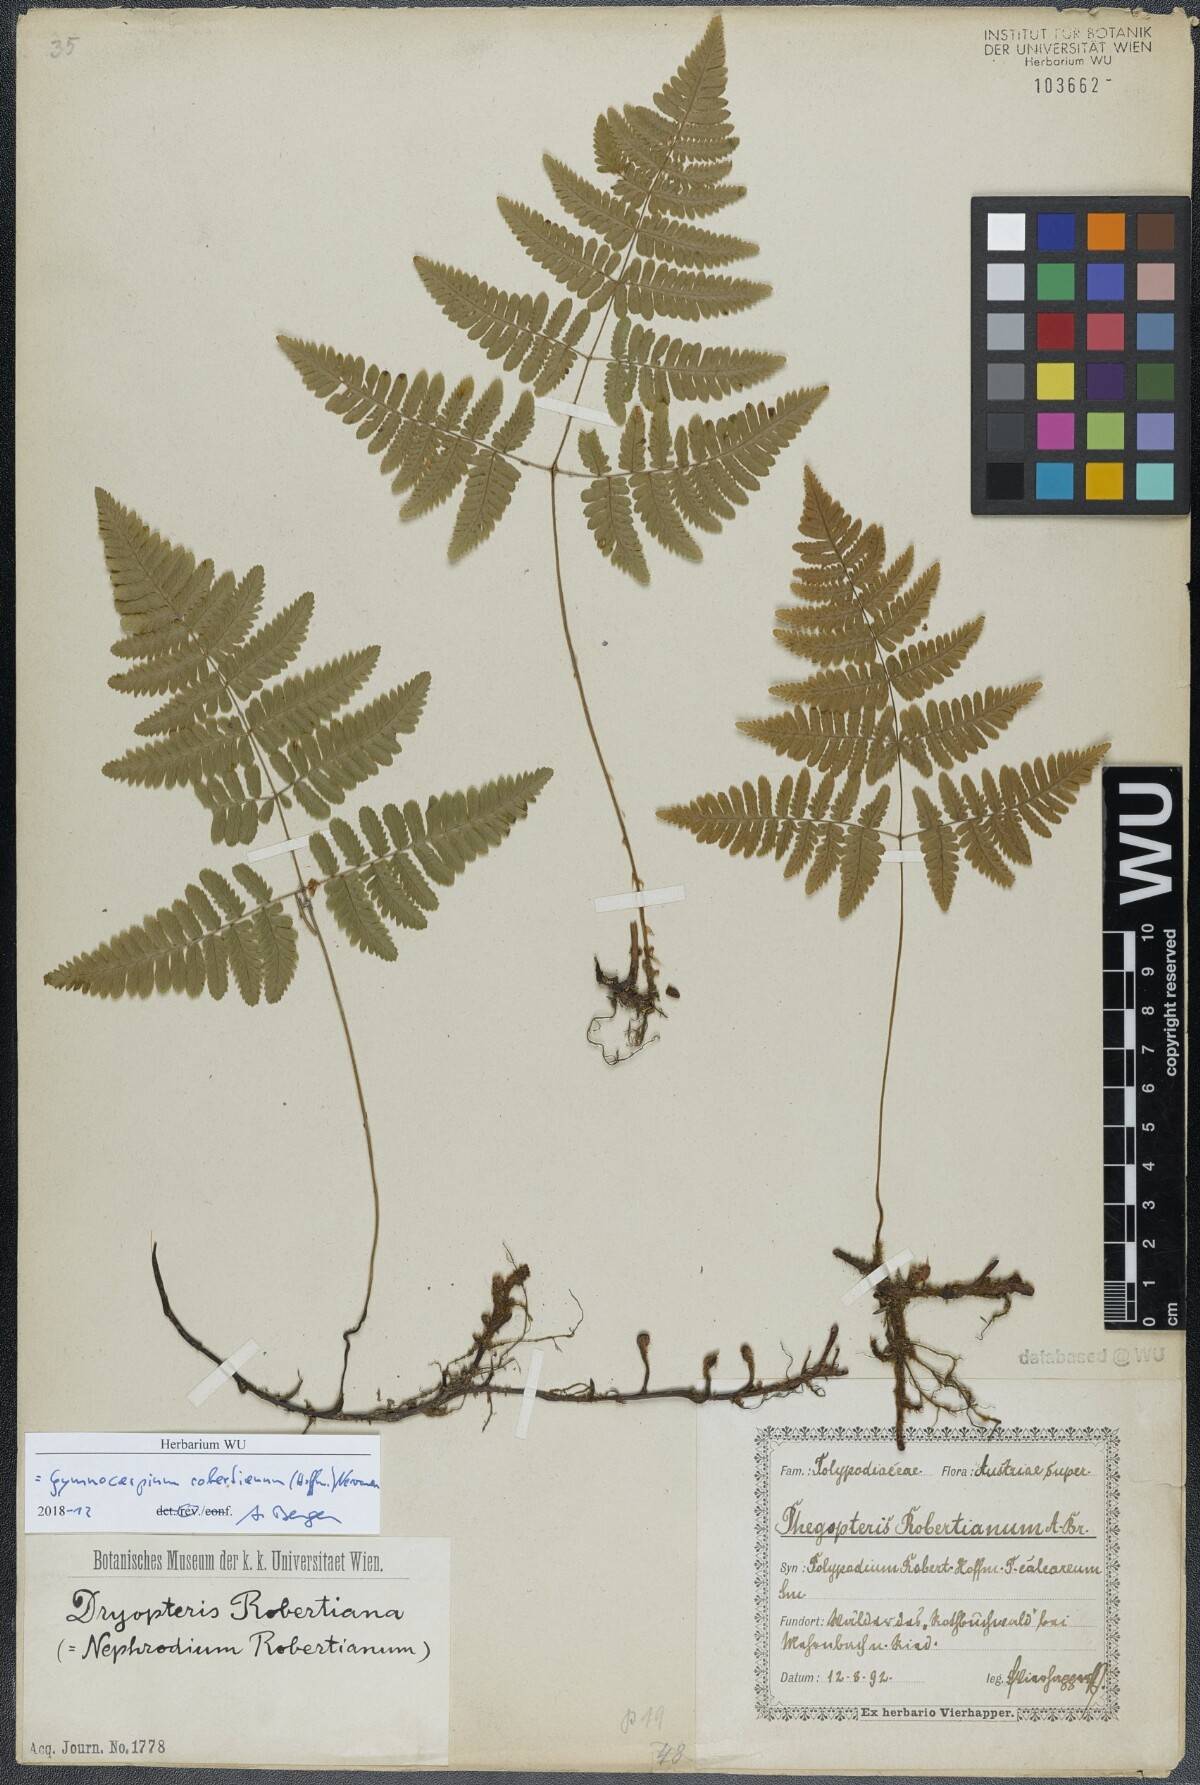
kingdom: Plantae
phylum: Tracheophyta
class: Polypodiopsida
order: Polypodiales
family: Cystopteridaceae
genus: Gymnocarpium
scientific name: Gymnocarpium robertianum
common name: Limestone fern
